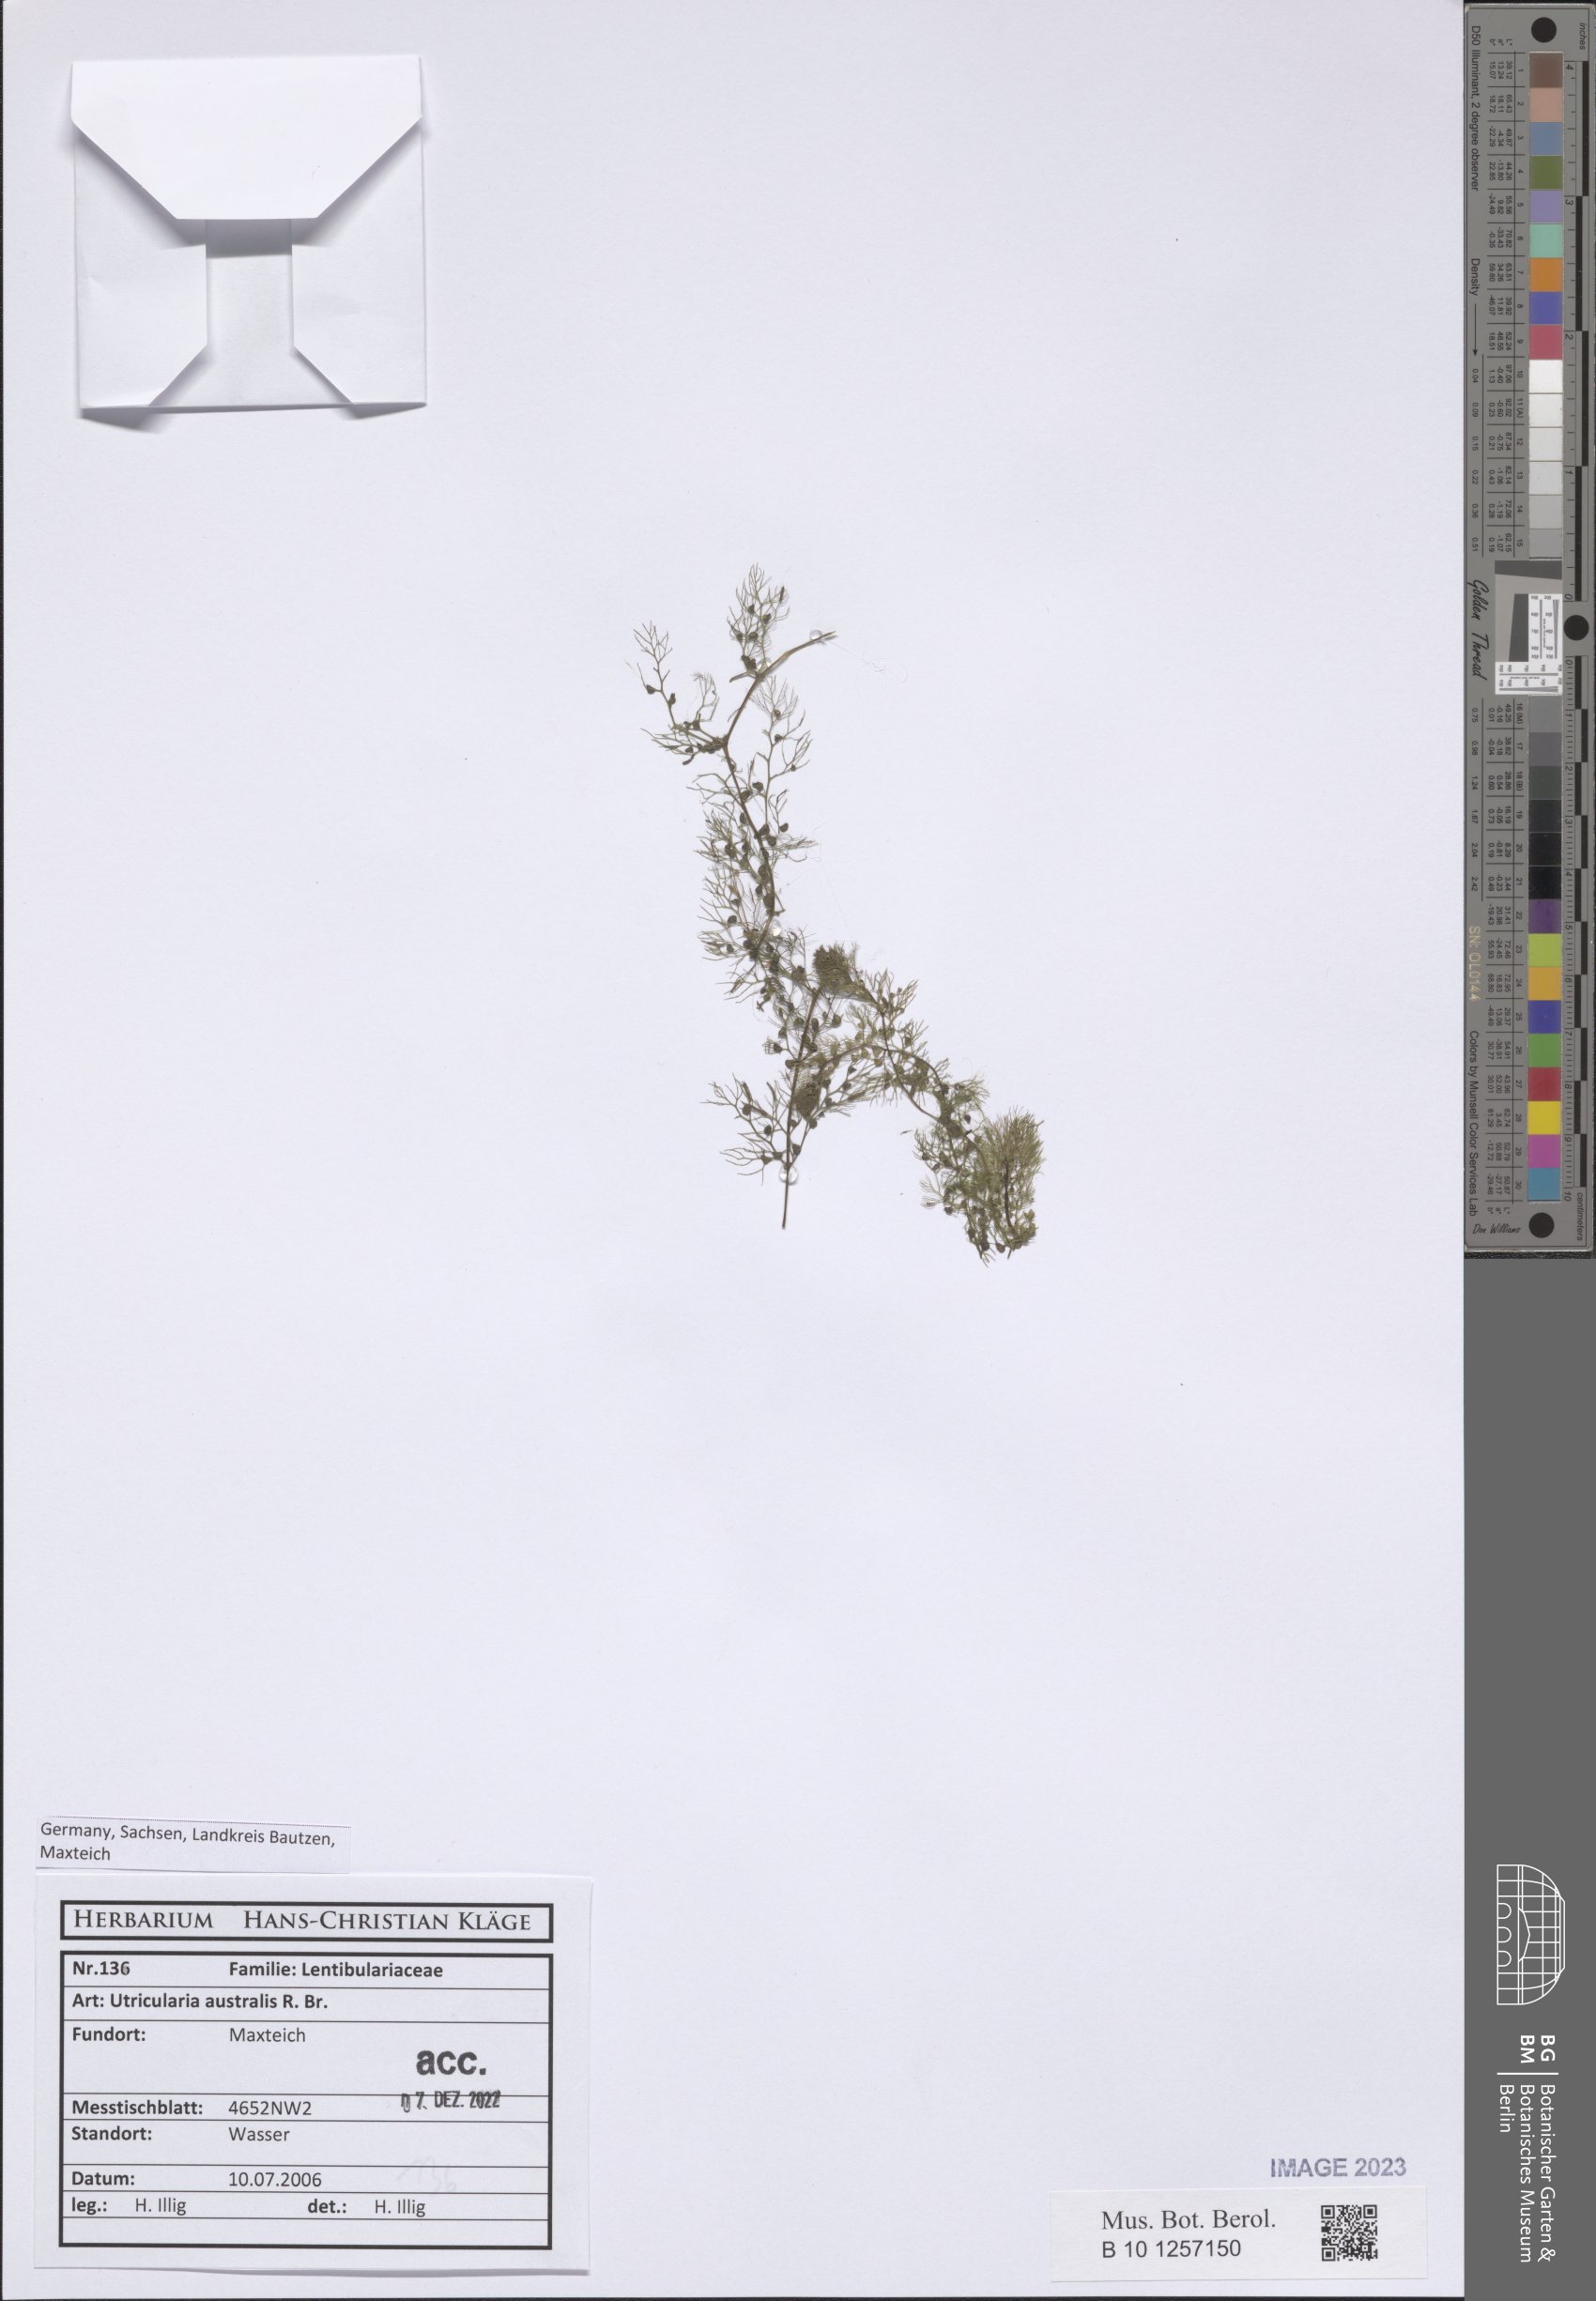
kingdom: Plantae
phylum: Tracheophyta
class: Magnoliopsida
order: Lamiales
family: Lentibulariaceae
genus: Utricularia
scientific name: Utricularia australis
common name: Bladderwort
